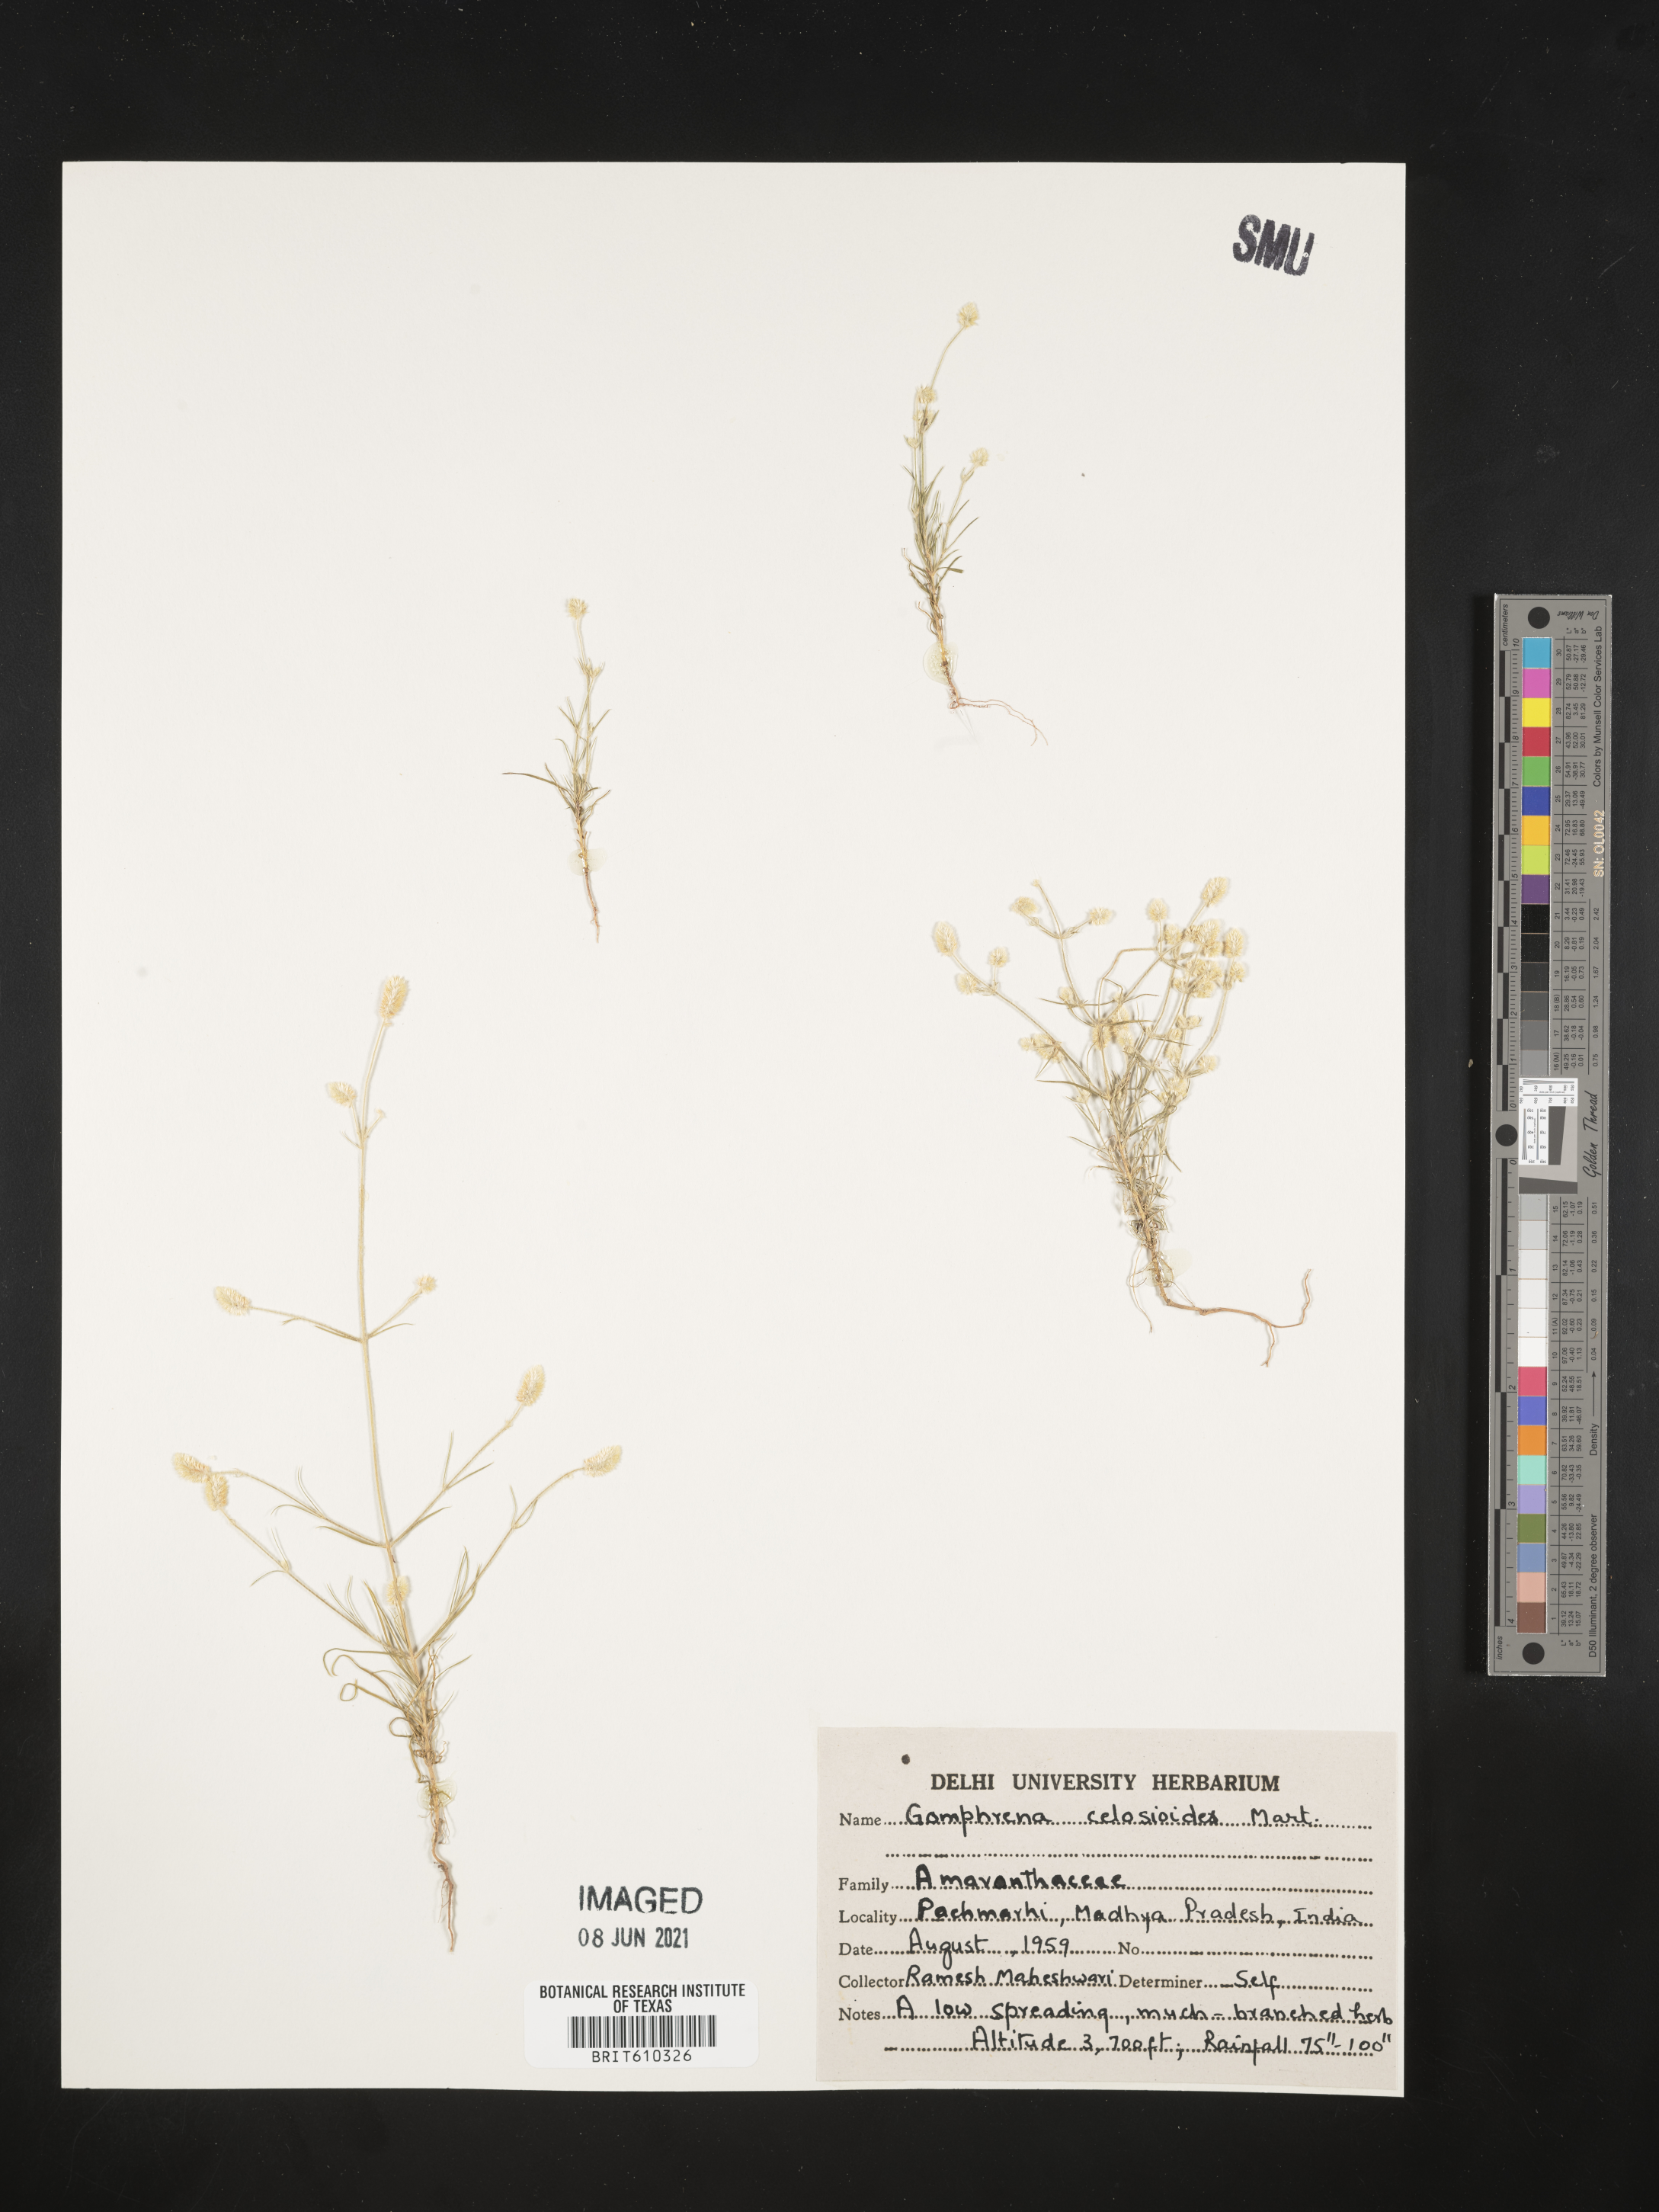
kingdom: Plantae
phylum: Tracheophyta
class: Magnoliopsida
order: Caryophyllales
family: Amaranthaceae
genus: Gomphrena
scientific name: Gomphrena celosioides
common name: Gomphrena-weed
